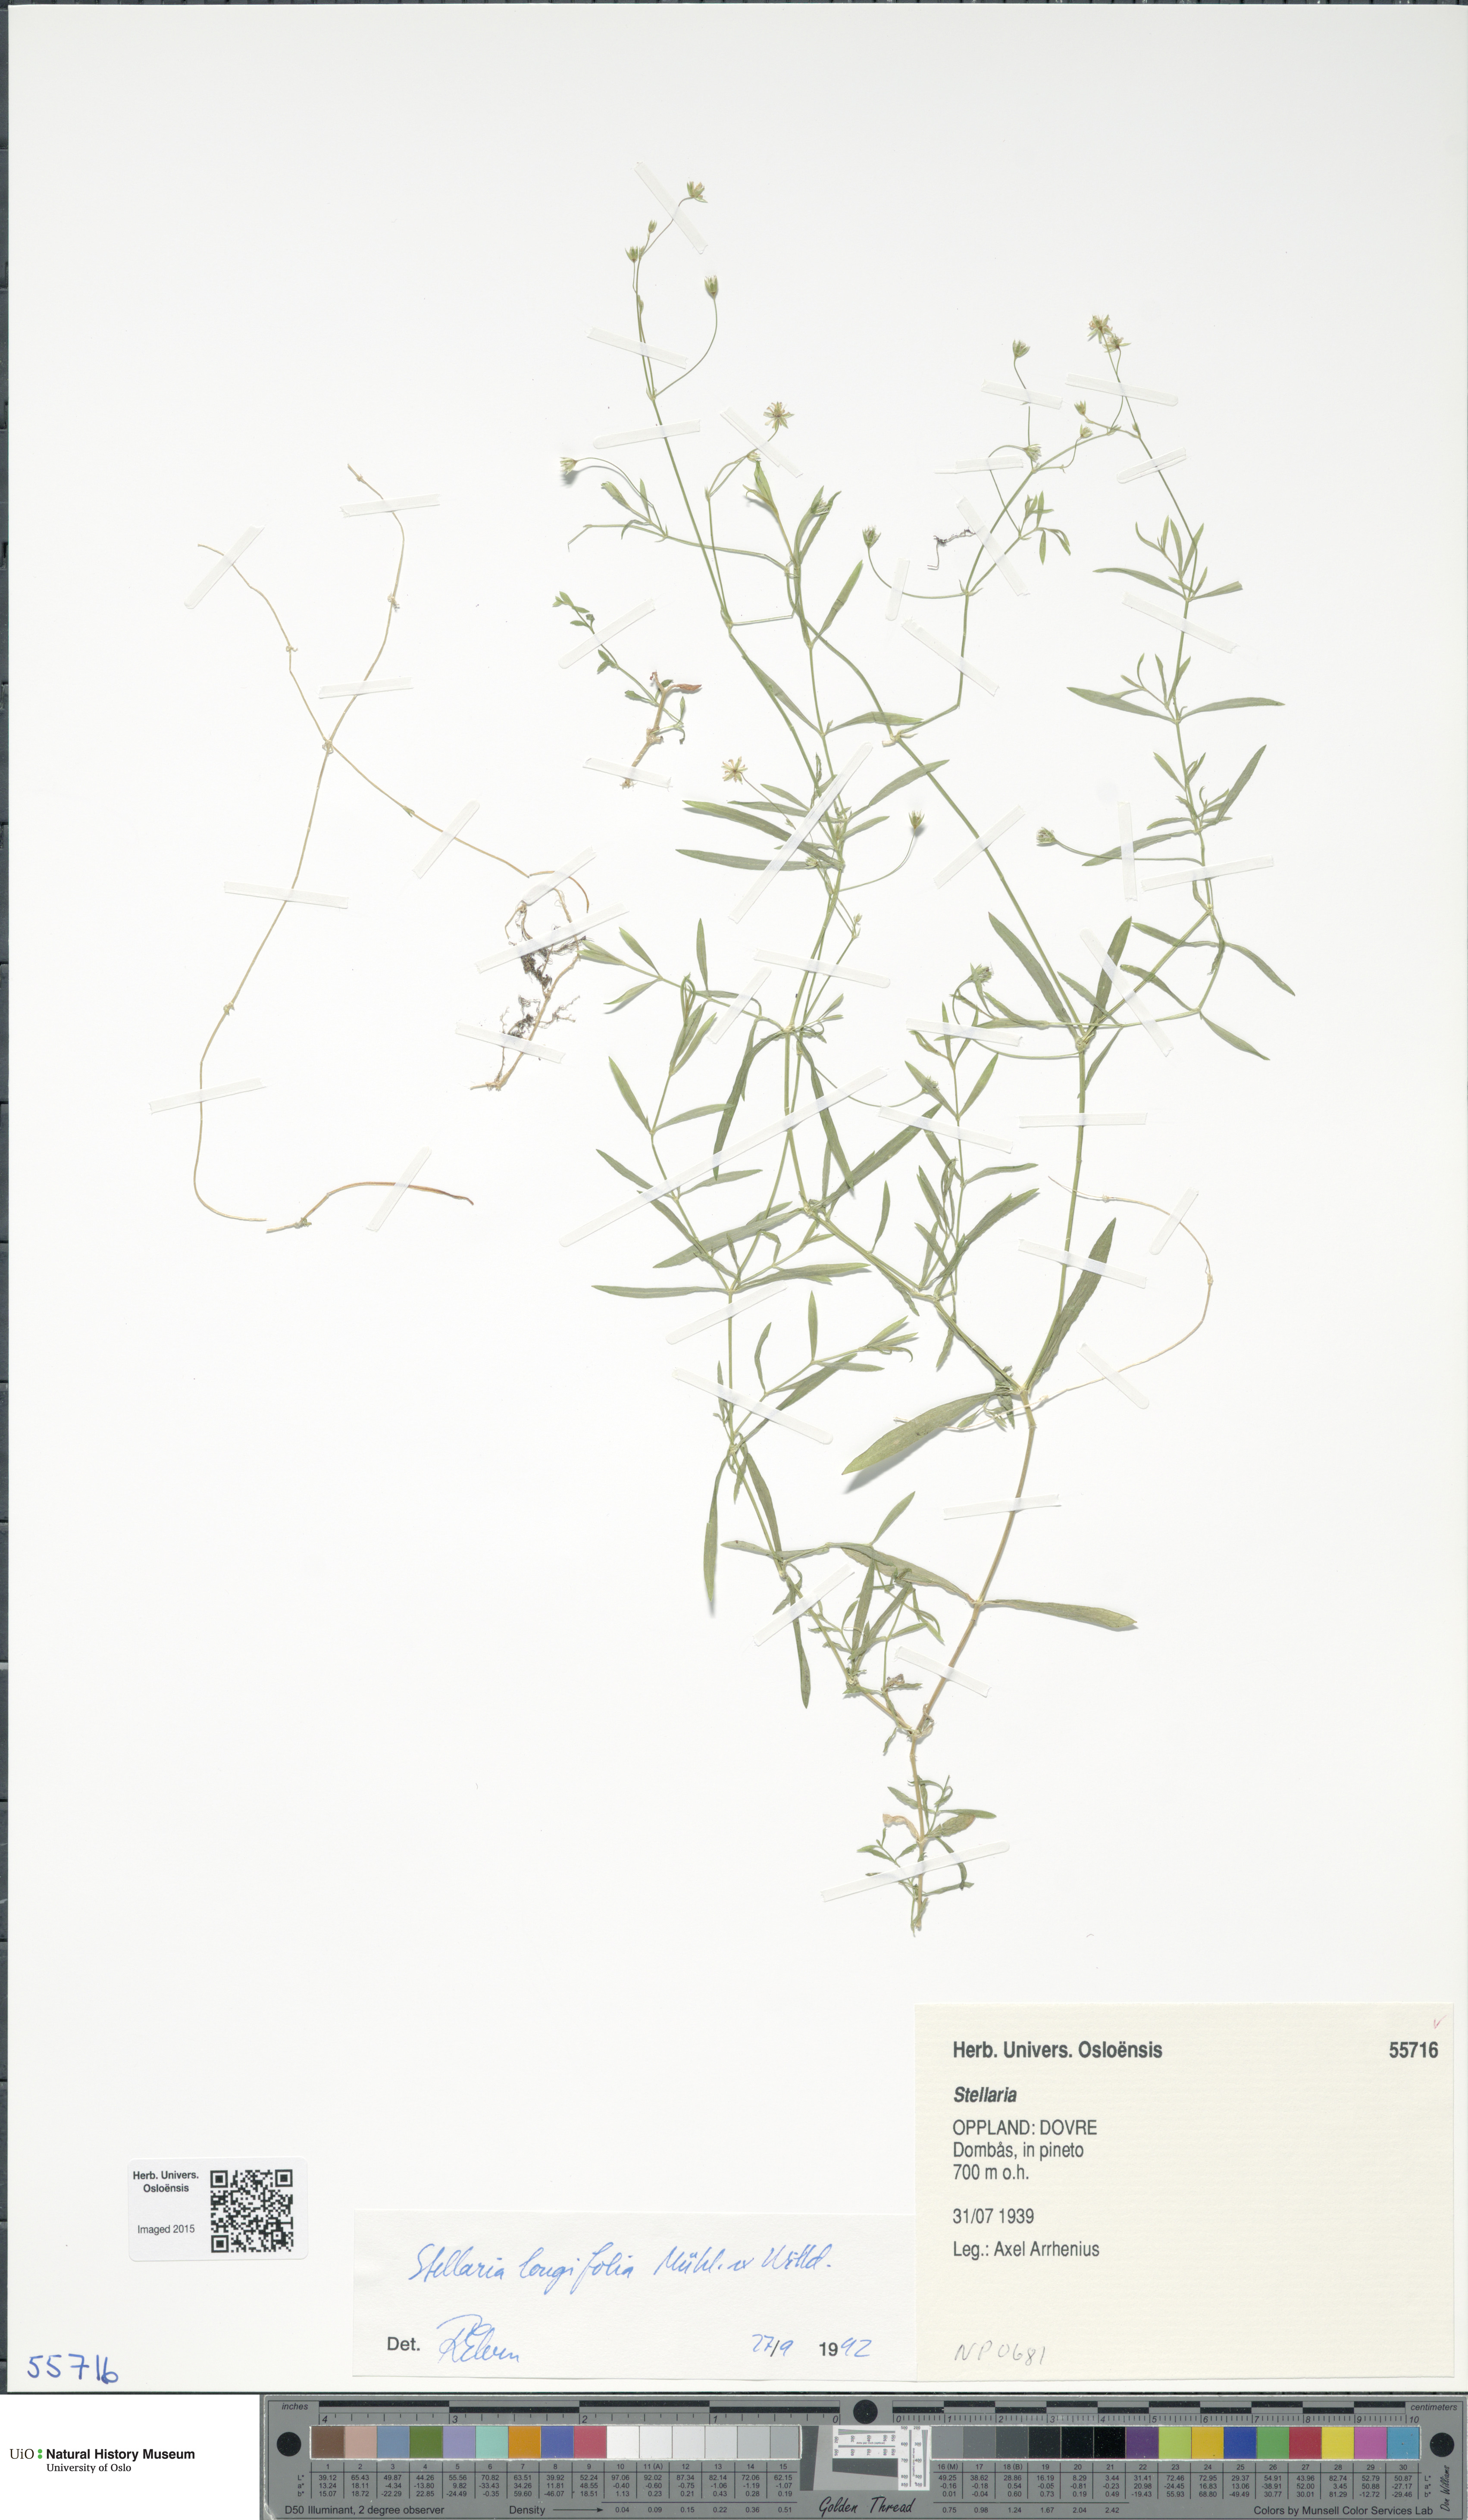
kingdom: Plantae
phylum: Tracheophyta
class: Magnoliopsida
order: Caryophyllales
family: Caryophyllaceae
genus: Stellaria
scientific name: Stellaria longifolia
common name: Long-leaved chickweed
